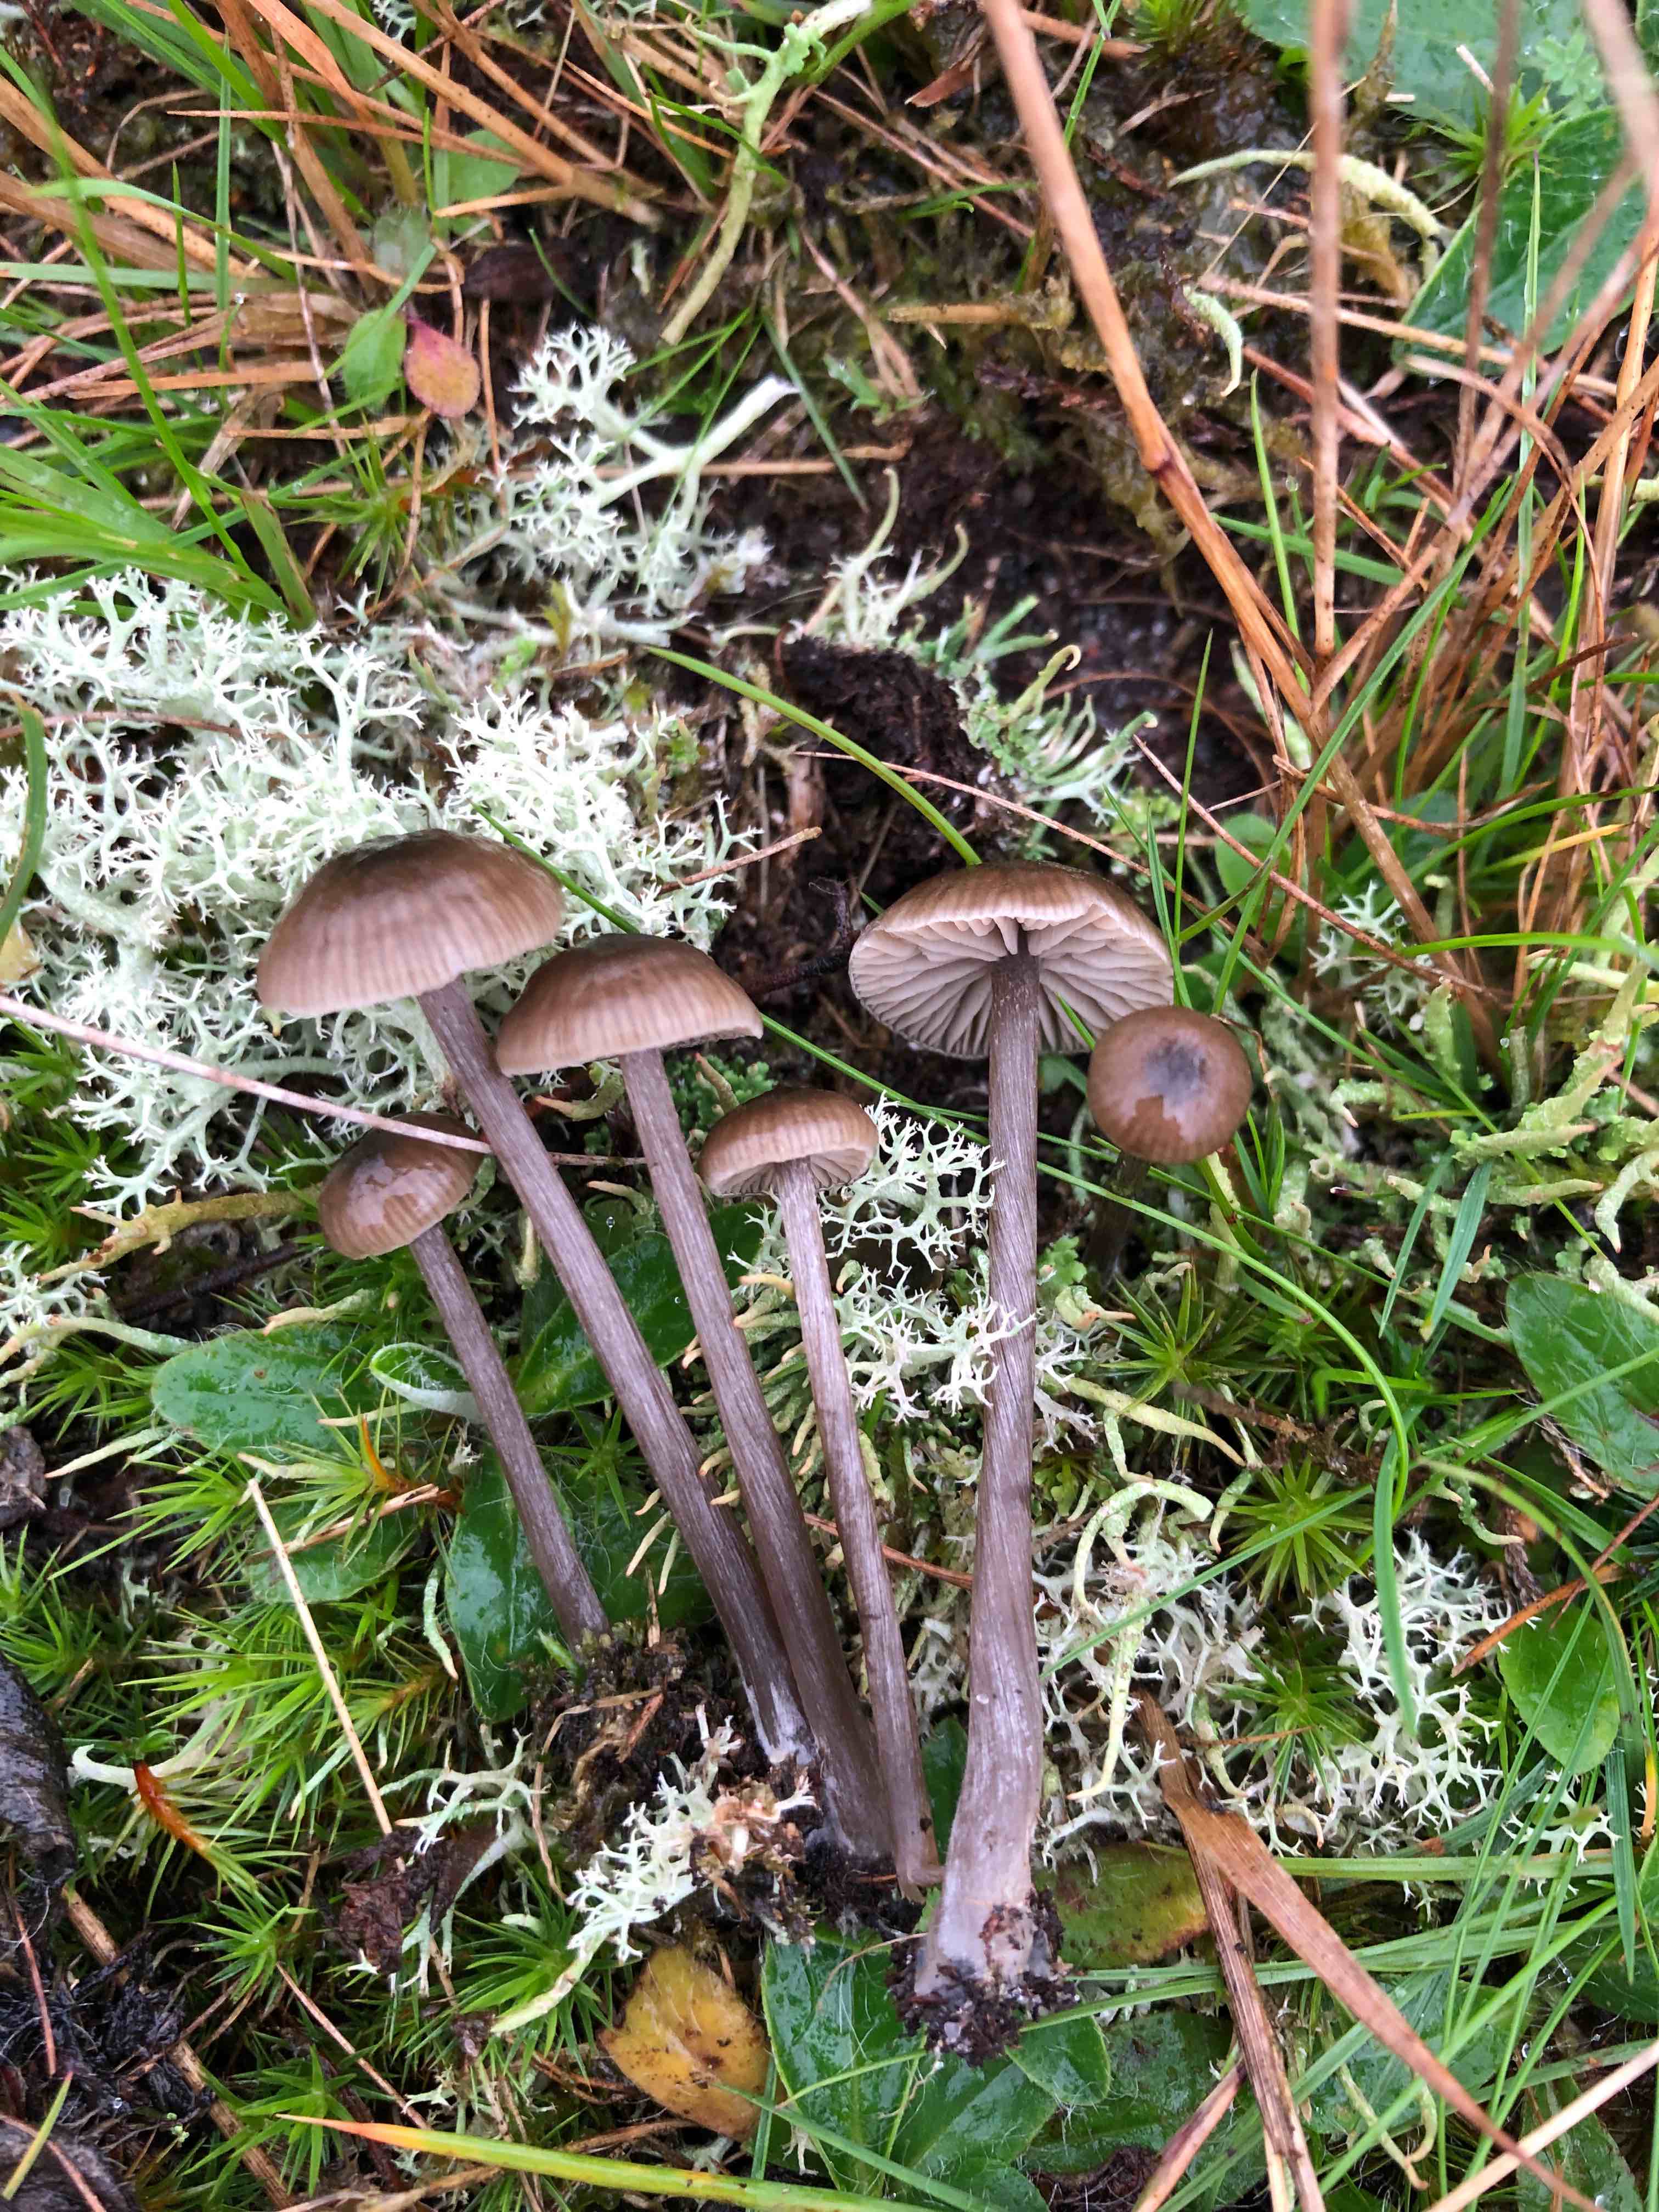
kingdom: Fungi
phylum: Basidiomycota
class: Agaricomycetes
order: Agaricales
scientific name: Agaricales
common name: champignonordenen
